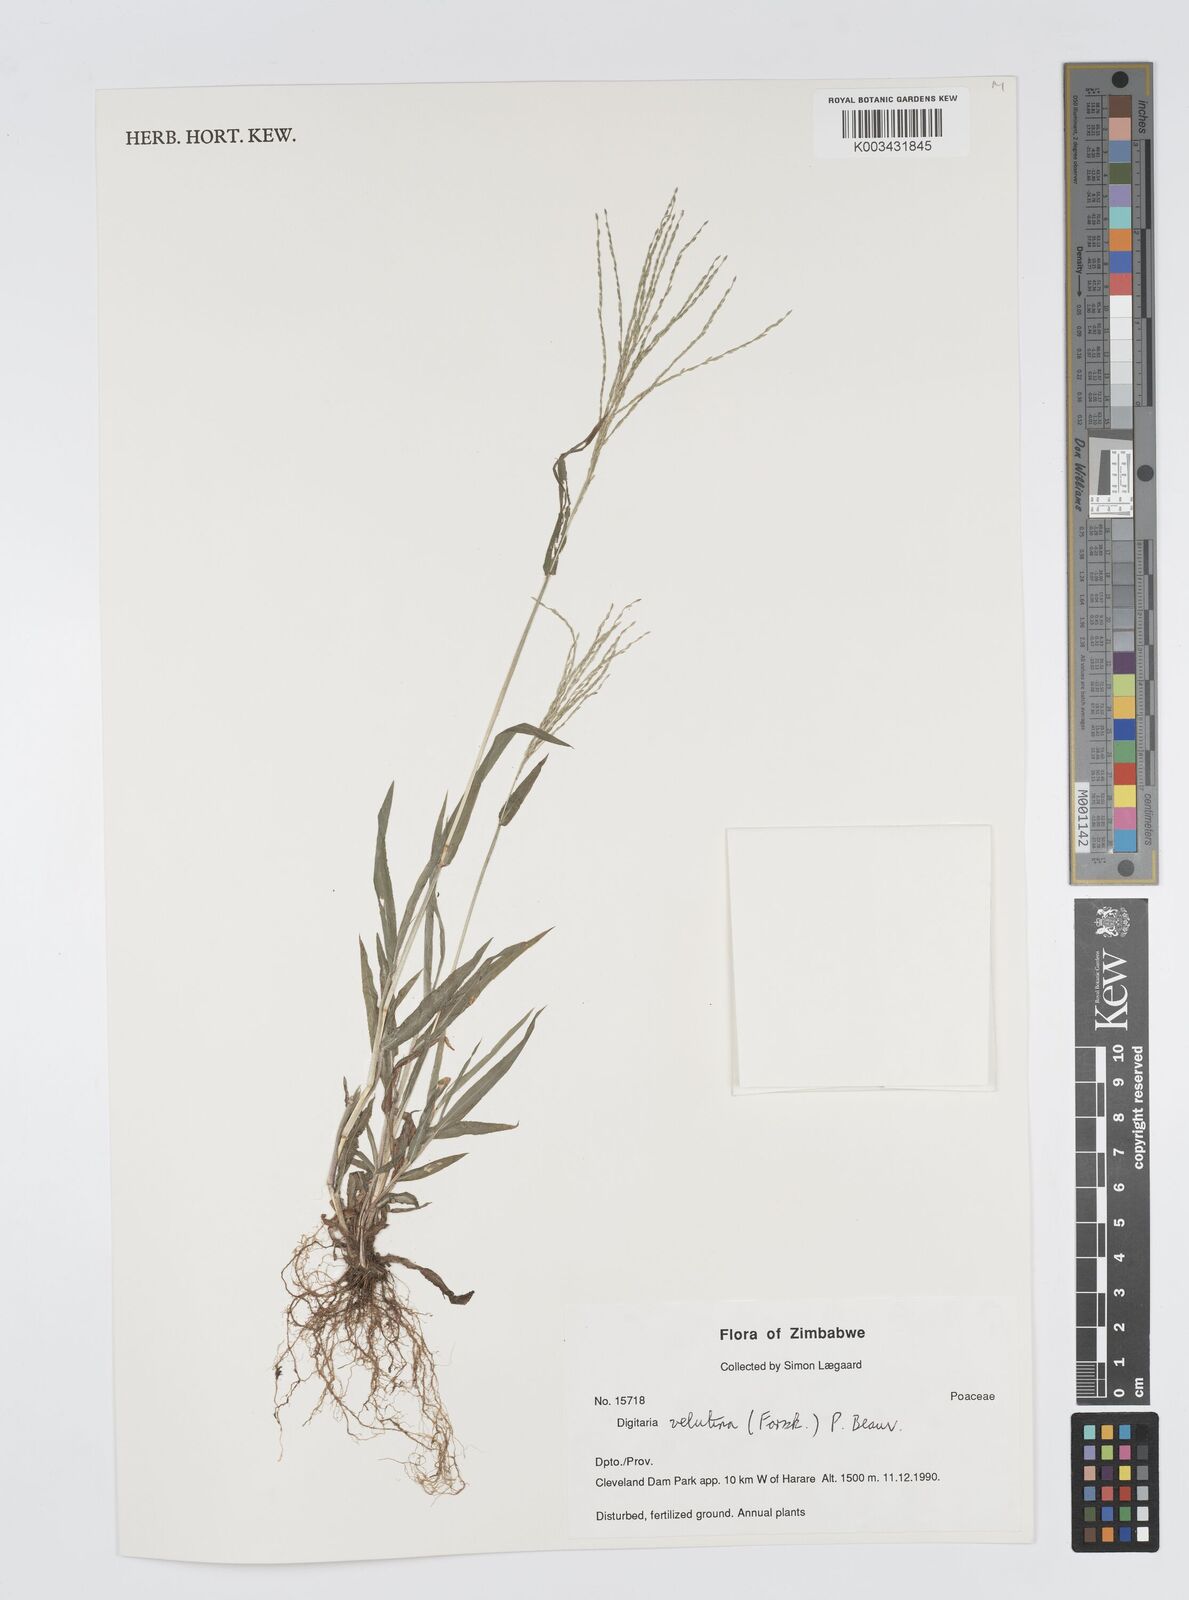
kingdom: Plantae
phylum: Tracheophyta
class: Liliopsida
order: Poales
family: Poaceae
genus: Digitaria
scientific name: Digitaria velutina
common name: Long-plume finger grass
